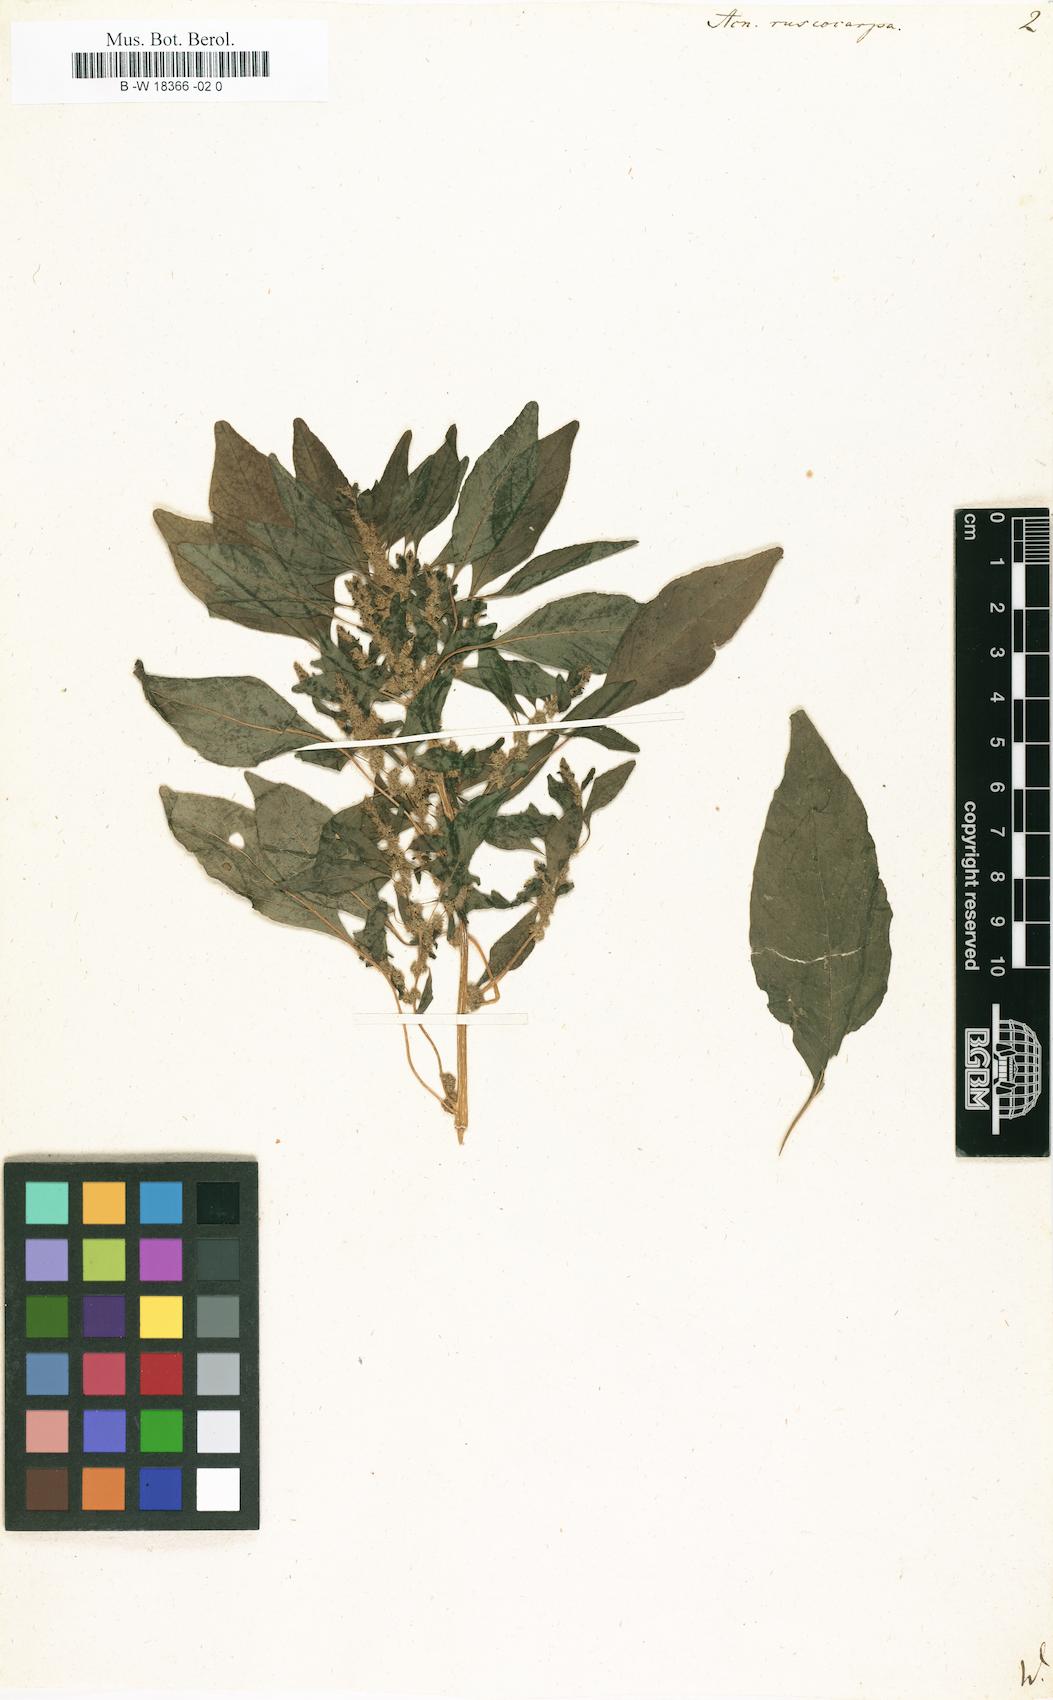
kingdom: Plantae
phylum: Tracheophyta
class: Magnoliopsida
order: Caryophyllales
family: Amaranthaceae
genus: Amaranthus
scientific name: Amaranthus cannabinus
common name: Salt-marsh water-hemp
